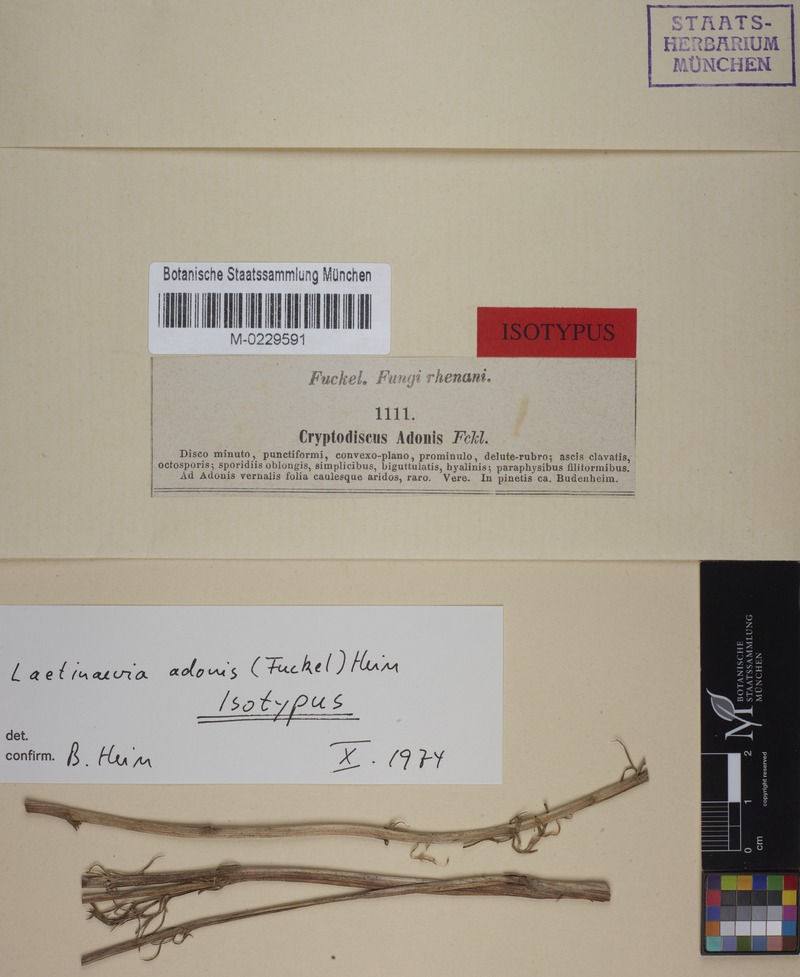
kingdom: Fungi
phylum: Ascomycota
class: Leotiomycetes
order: Helotiales
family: Calloriaceae
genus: Laetinaevia
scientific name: Laetinaevia adonis
